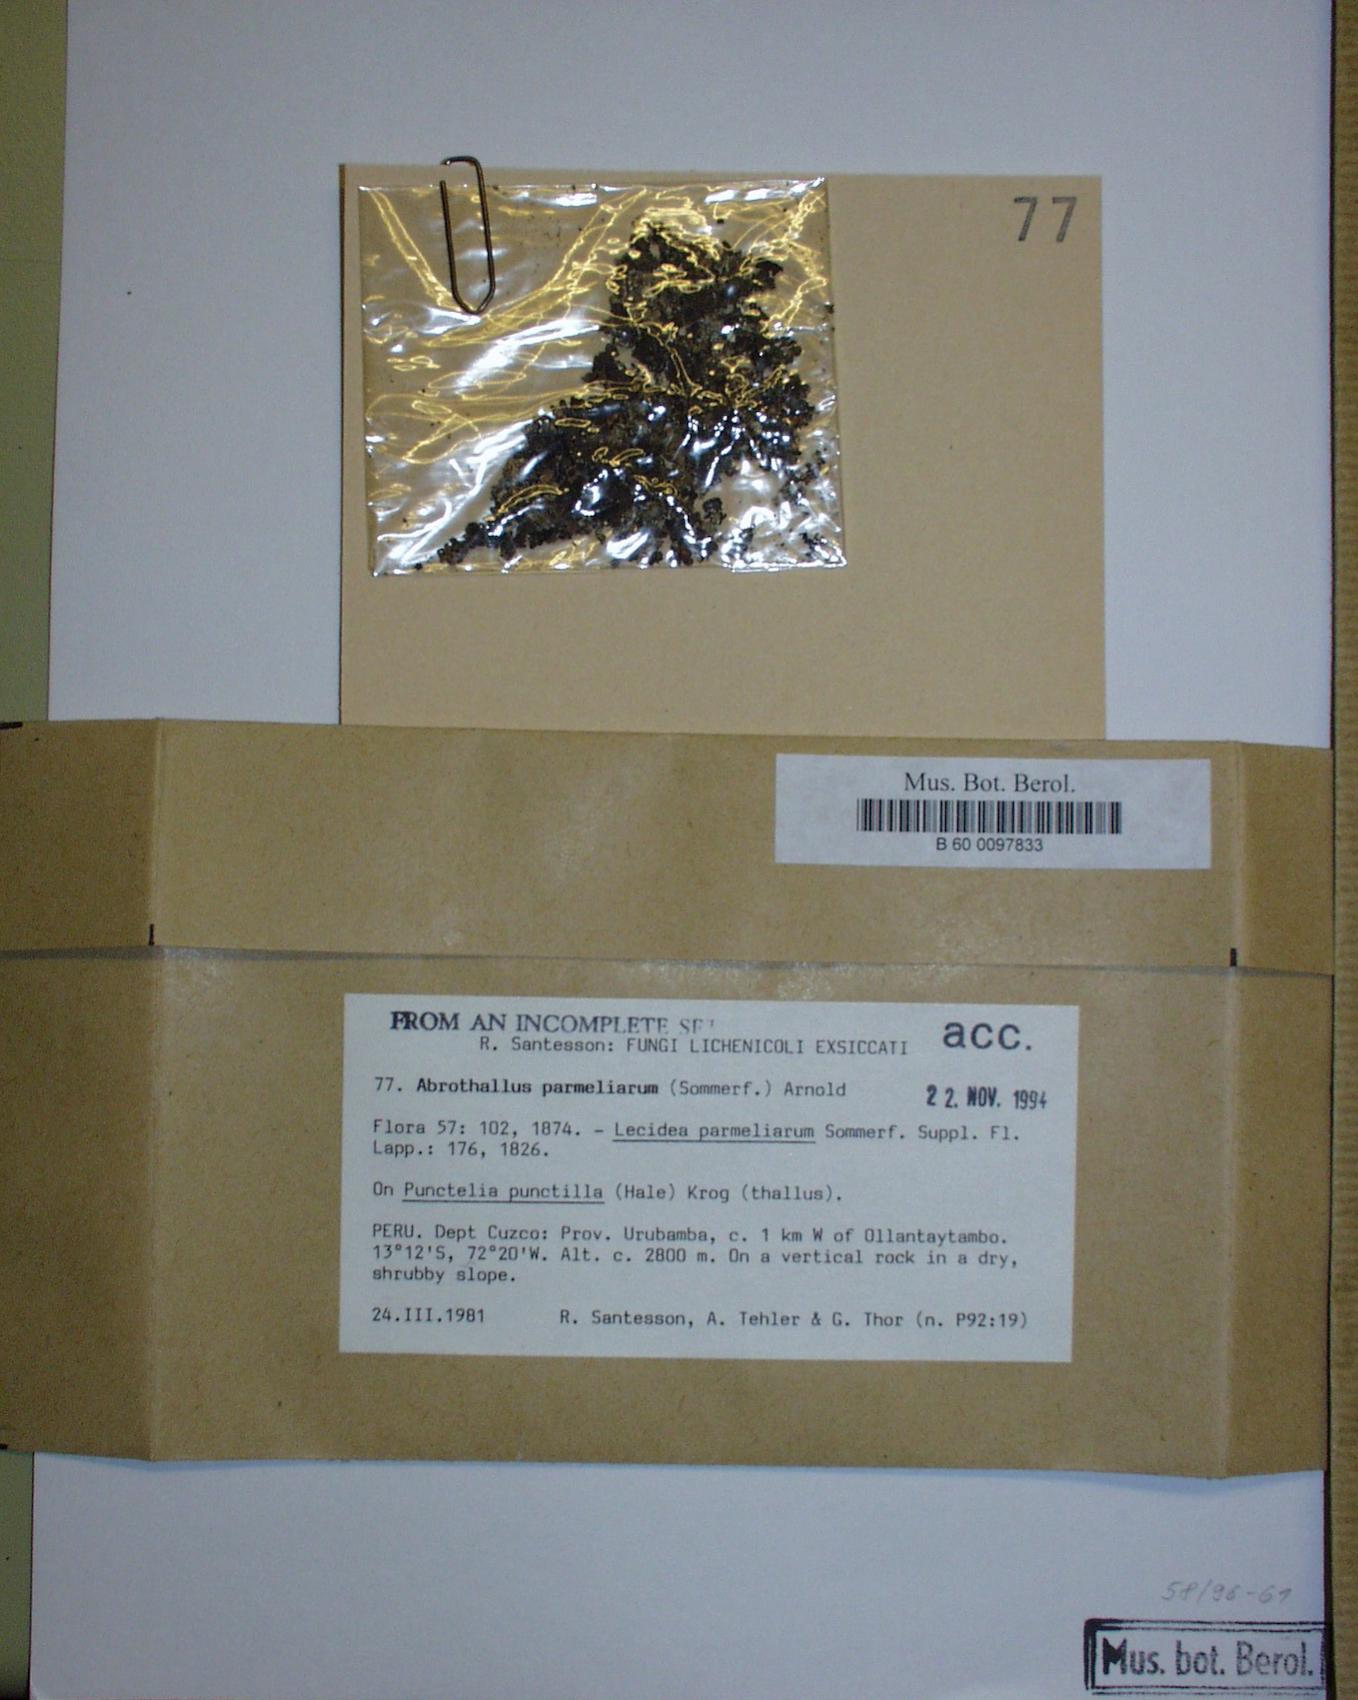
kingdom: Fungi
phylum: Ascomycota
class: Dothideomycetes
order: Abrothallales
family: Abrothallaceae
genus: Abrothallus
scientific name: Abrothallus parmeliarum
